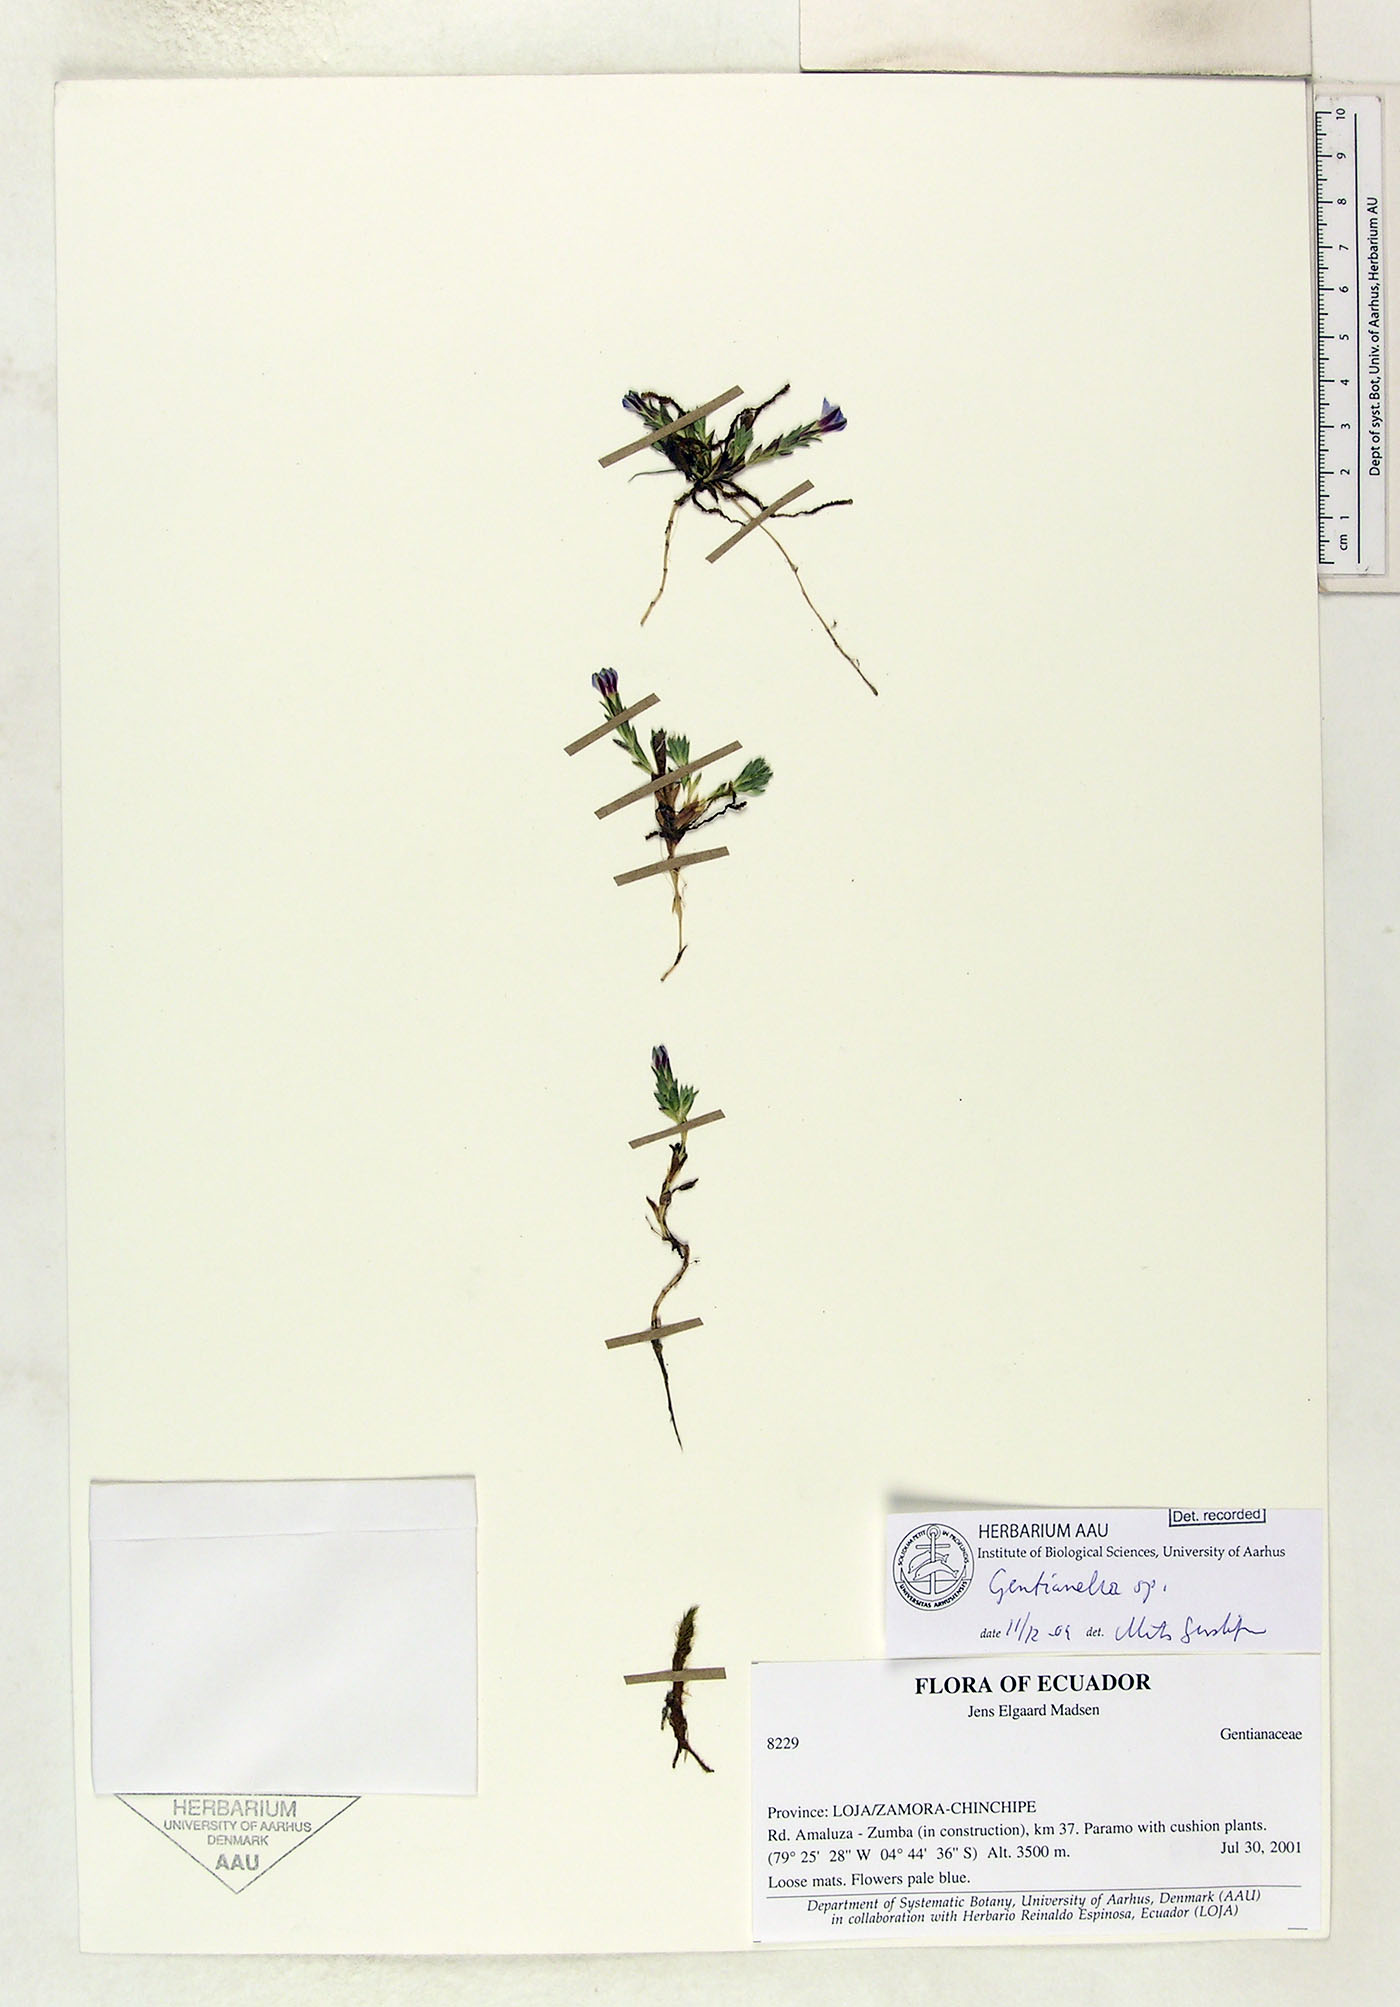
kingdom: Plantae
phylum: Tracheophyta
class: Magnoliopsida
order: Gentianales
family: Gentianaceae
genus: Gentianella
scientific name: Gentianella
